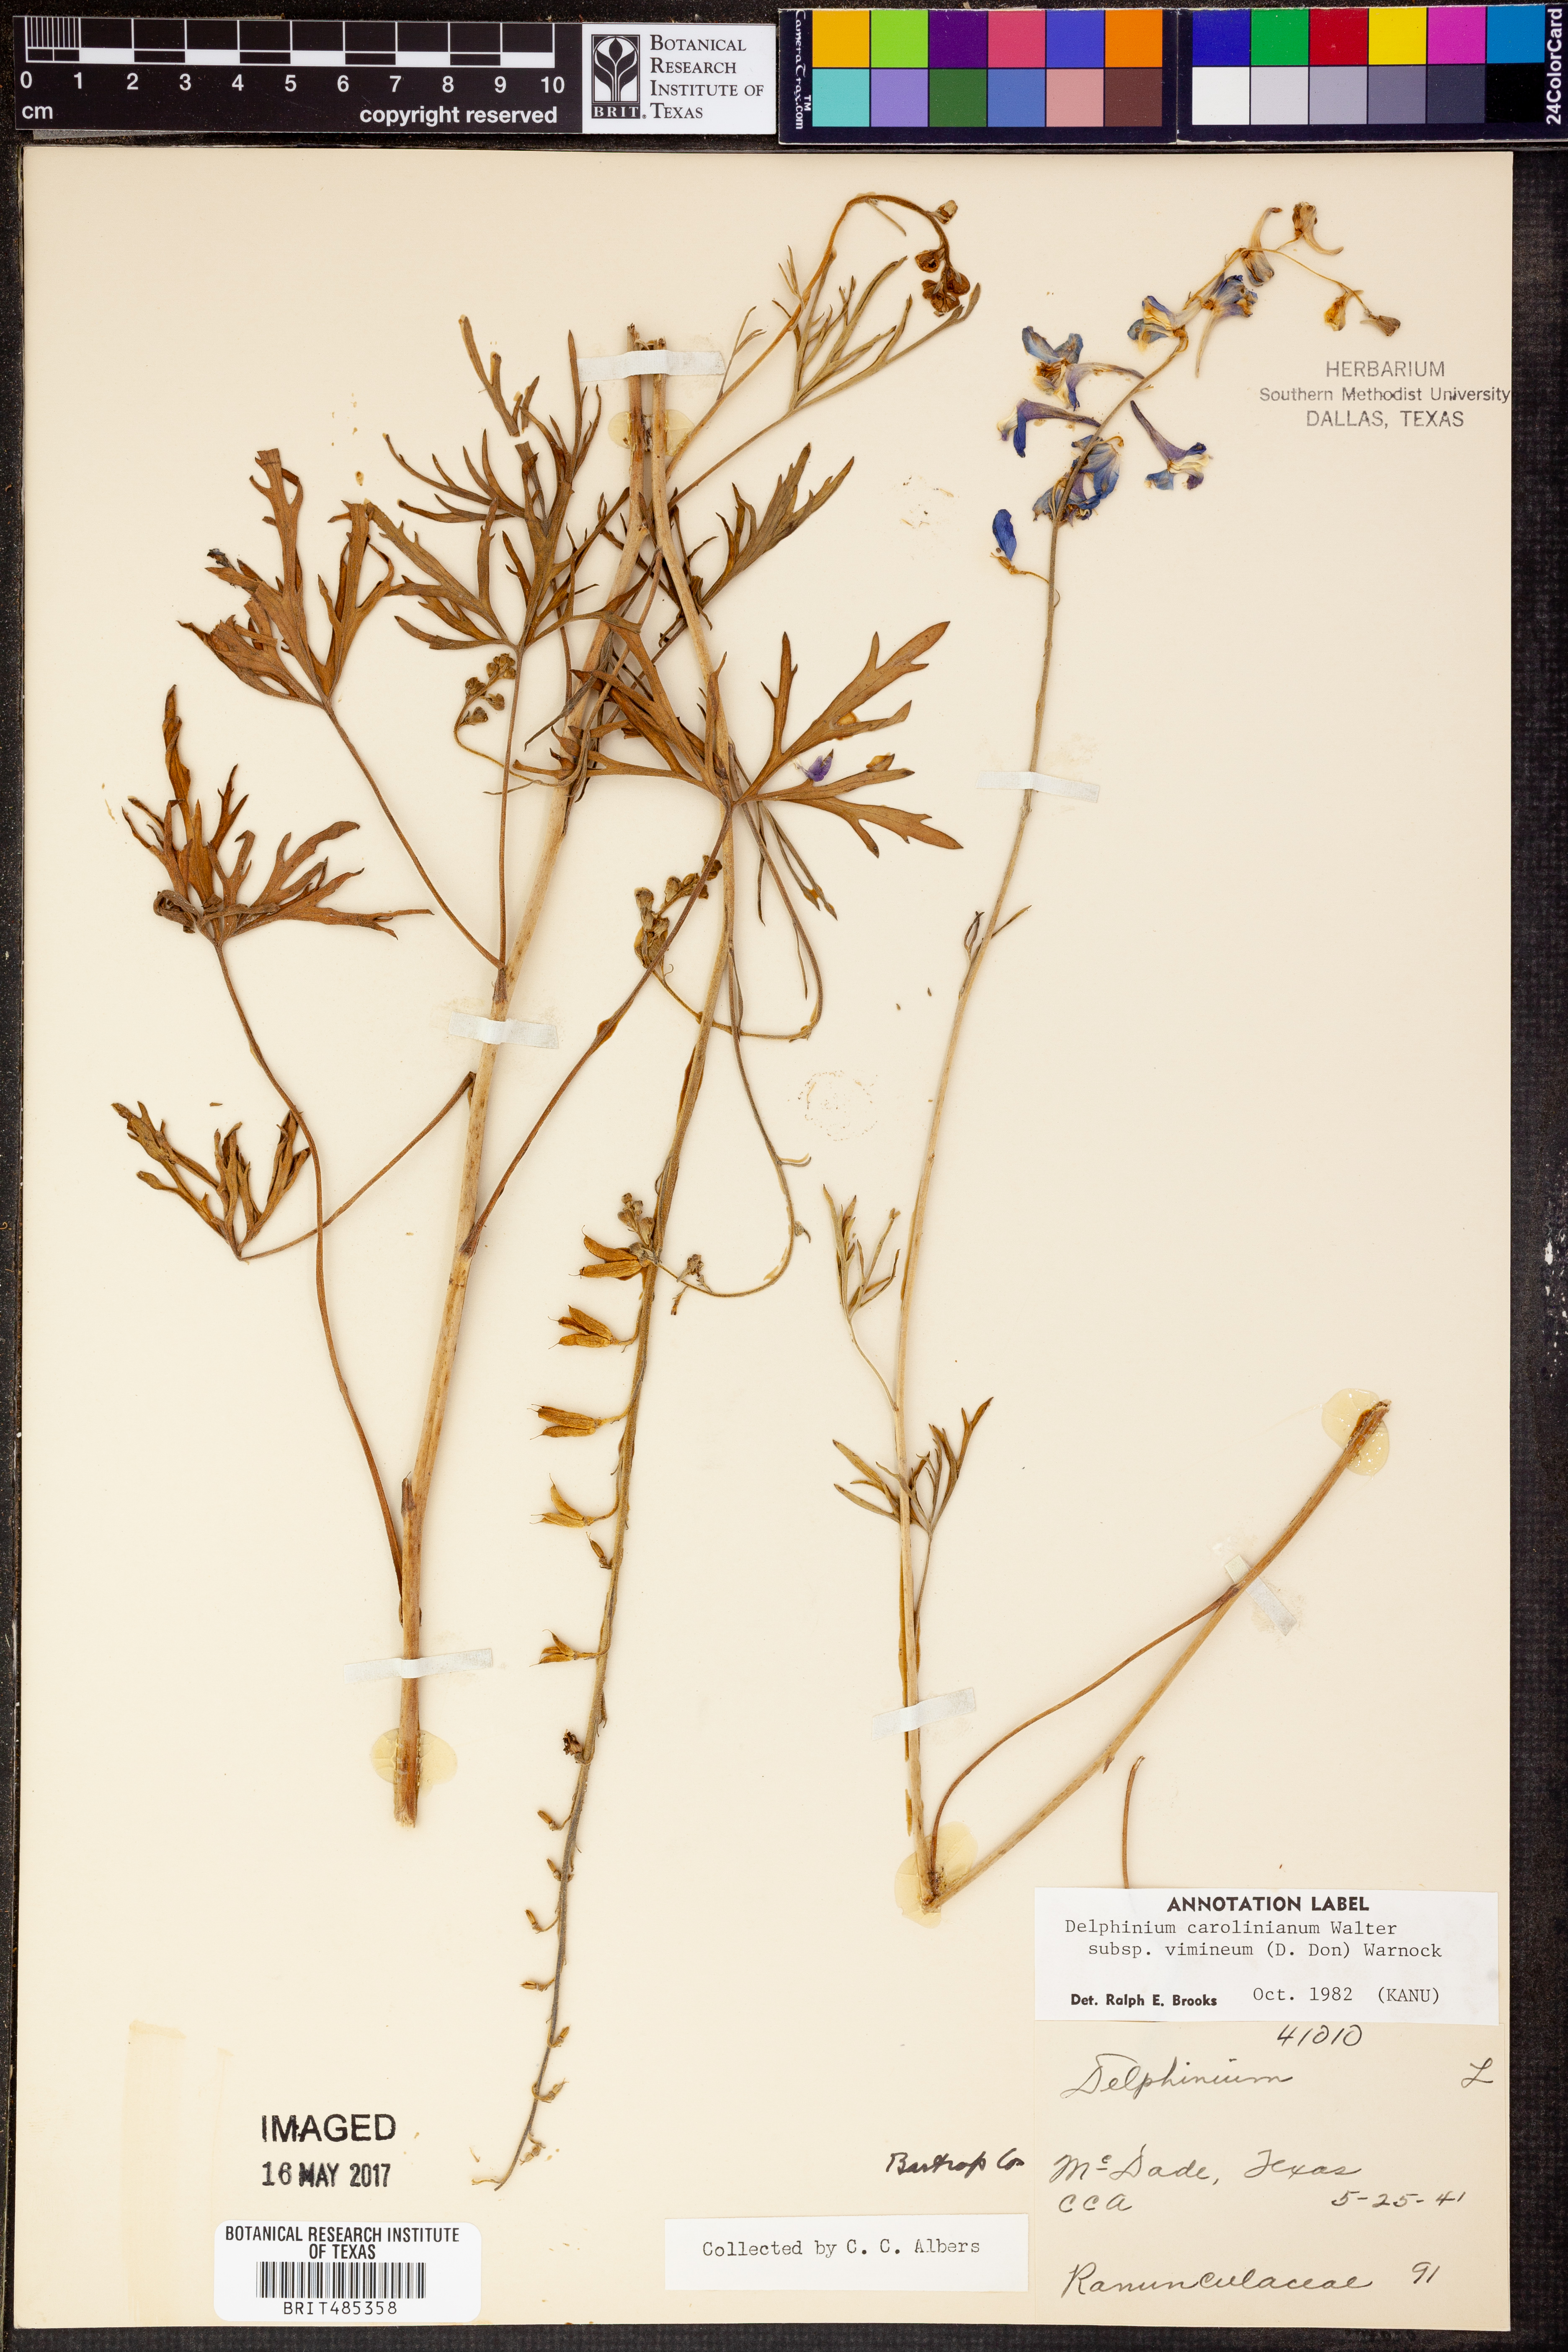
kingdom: Plantae
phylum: Tracheophyta
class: Magnoliopsida
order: Ranunculales
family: Ranunculaceae
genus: Delphinium
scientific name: Delphinium carolinianum
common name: Carolina larkspur
